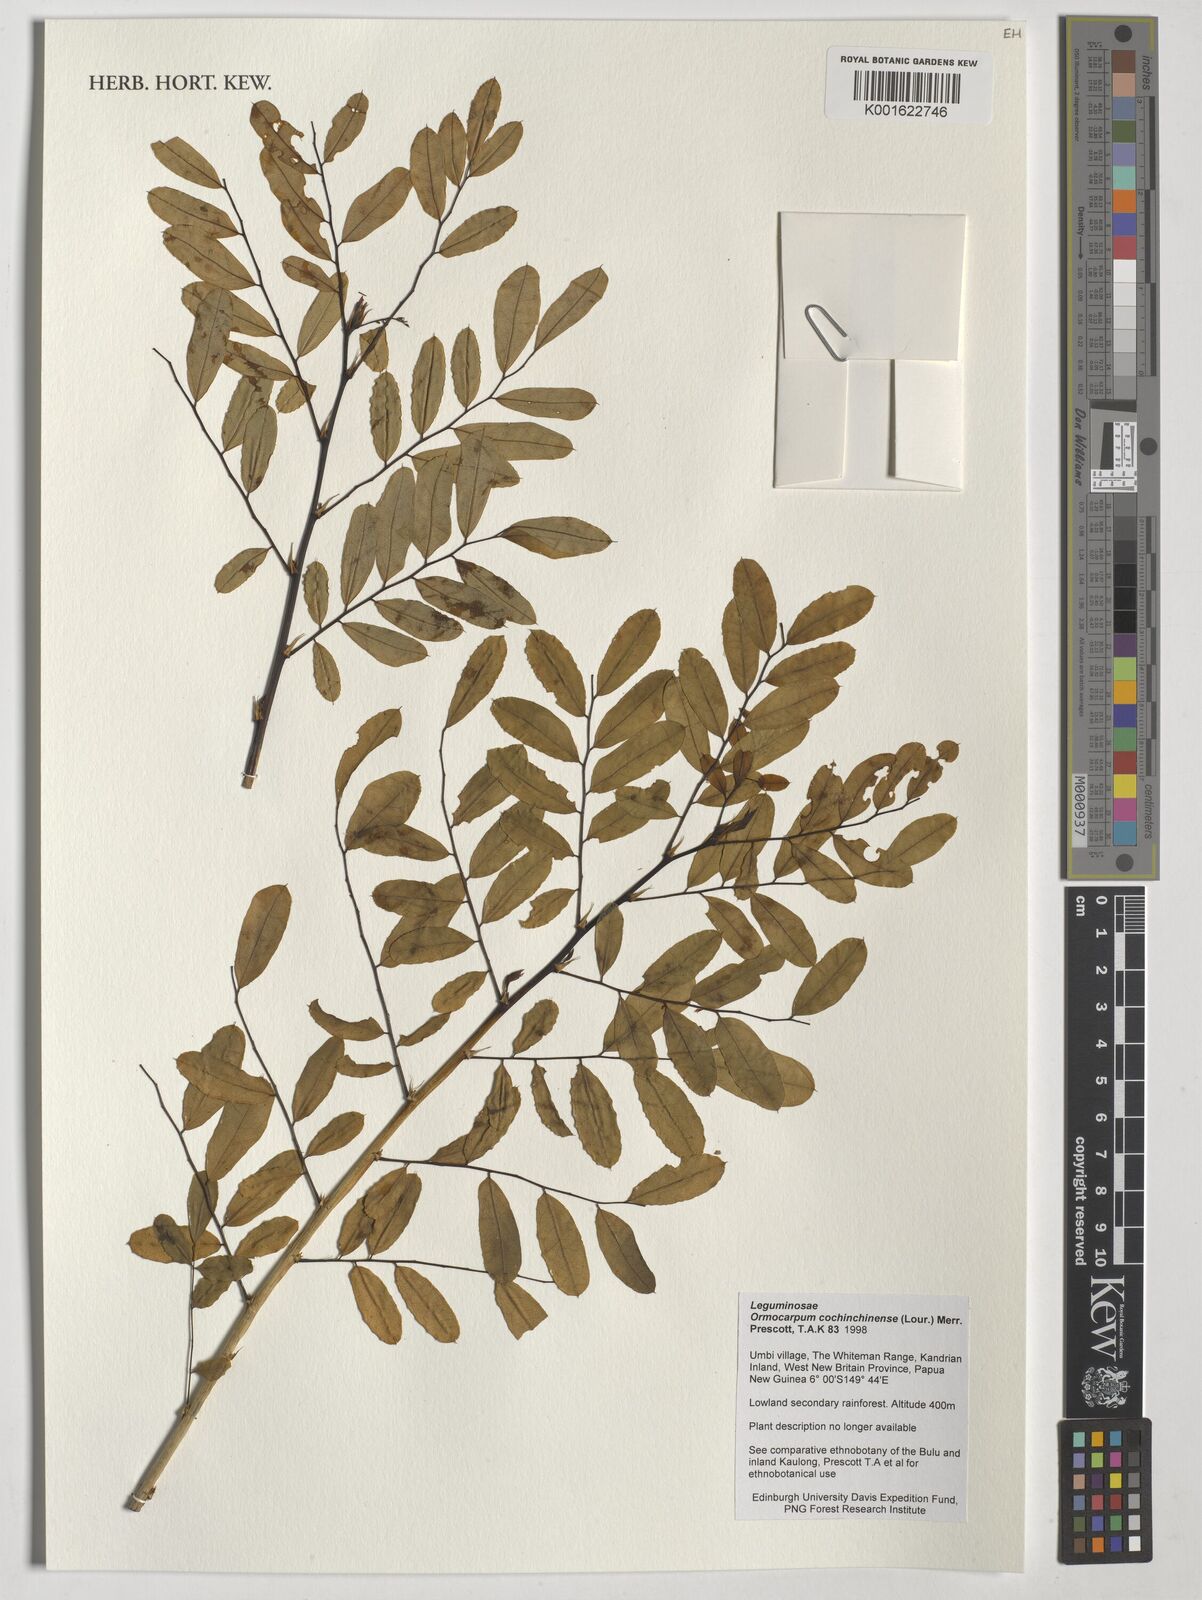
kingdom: Plantae
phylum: Tracheophyta
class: Magnoliopsida
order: Fabales
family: Fabaceae
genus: Ormocarpum
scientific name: Ormocarpum cochinchinense
